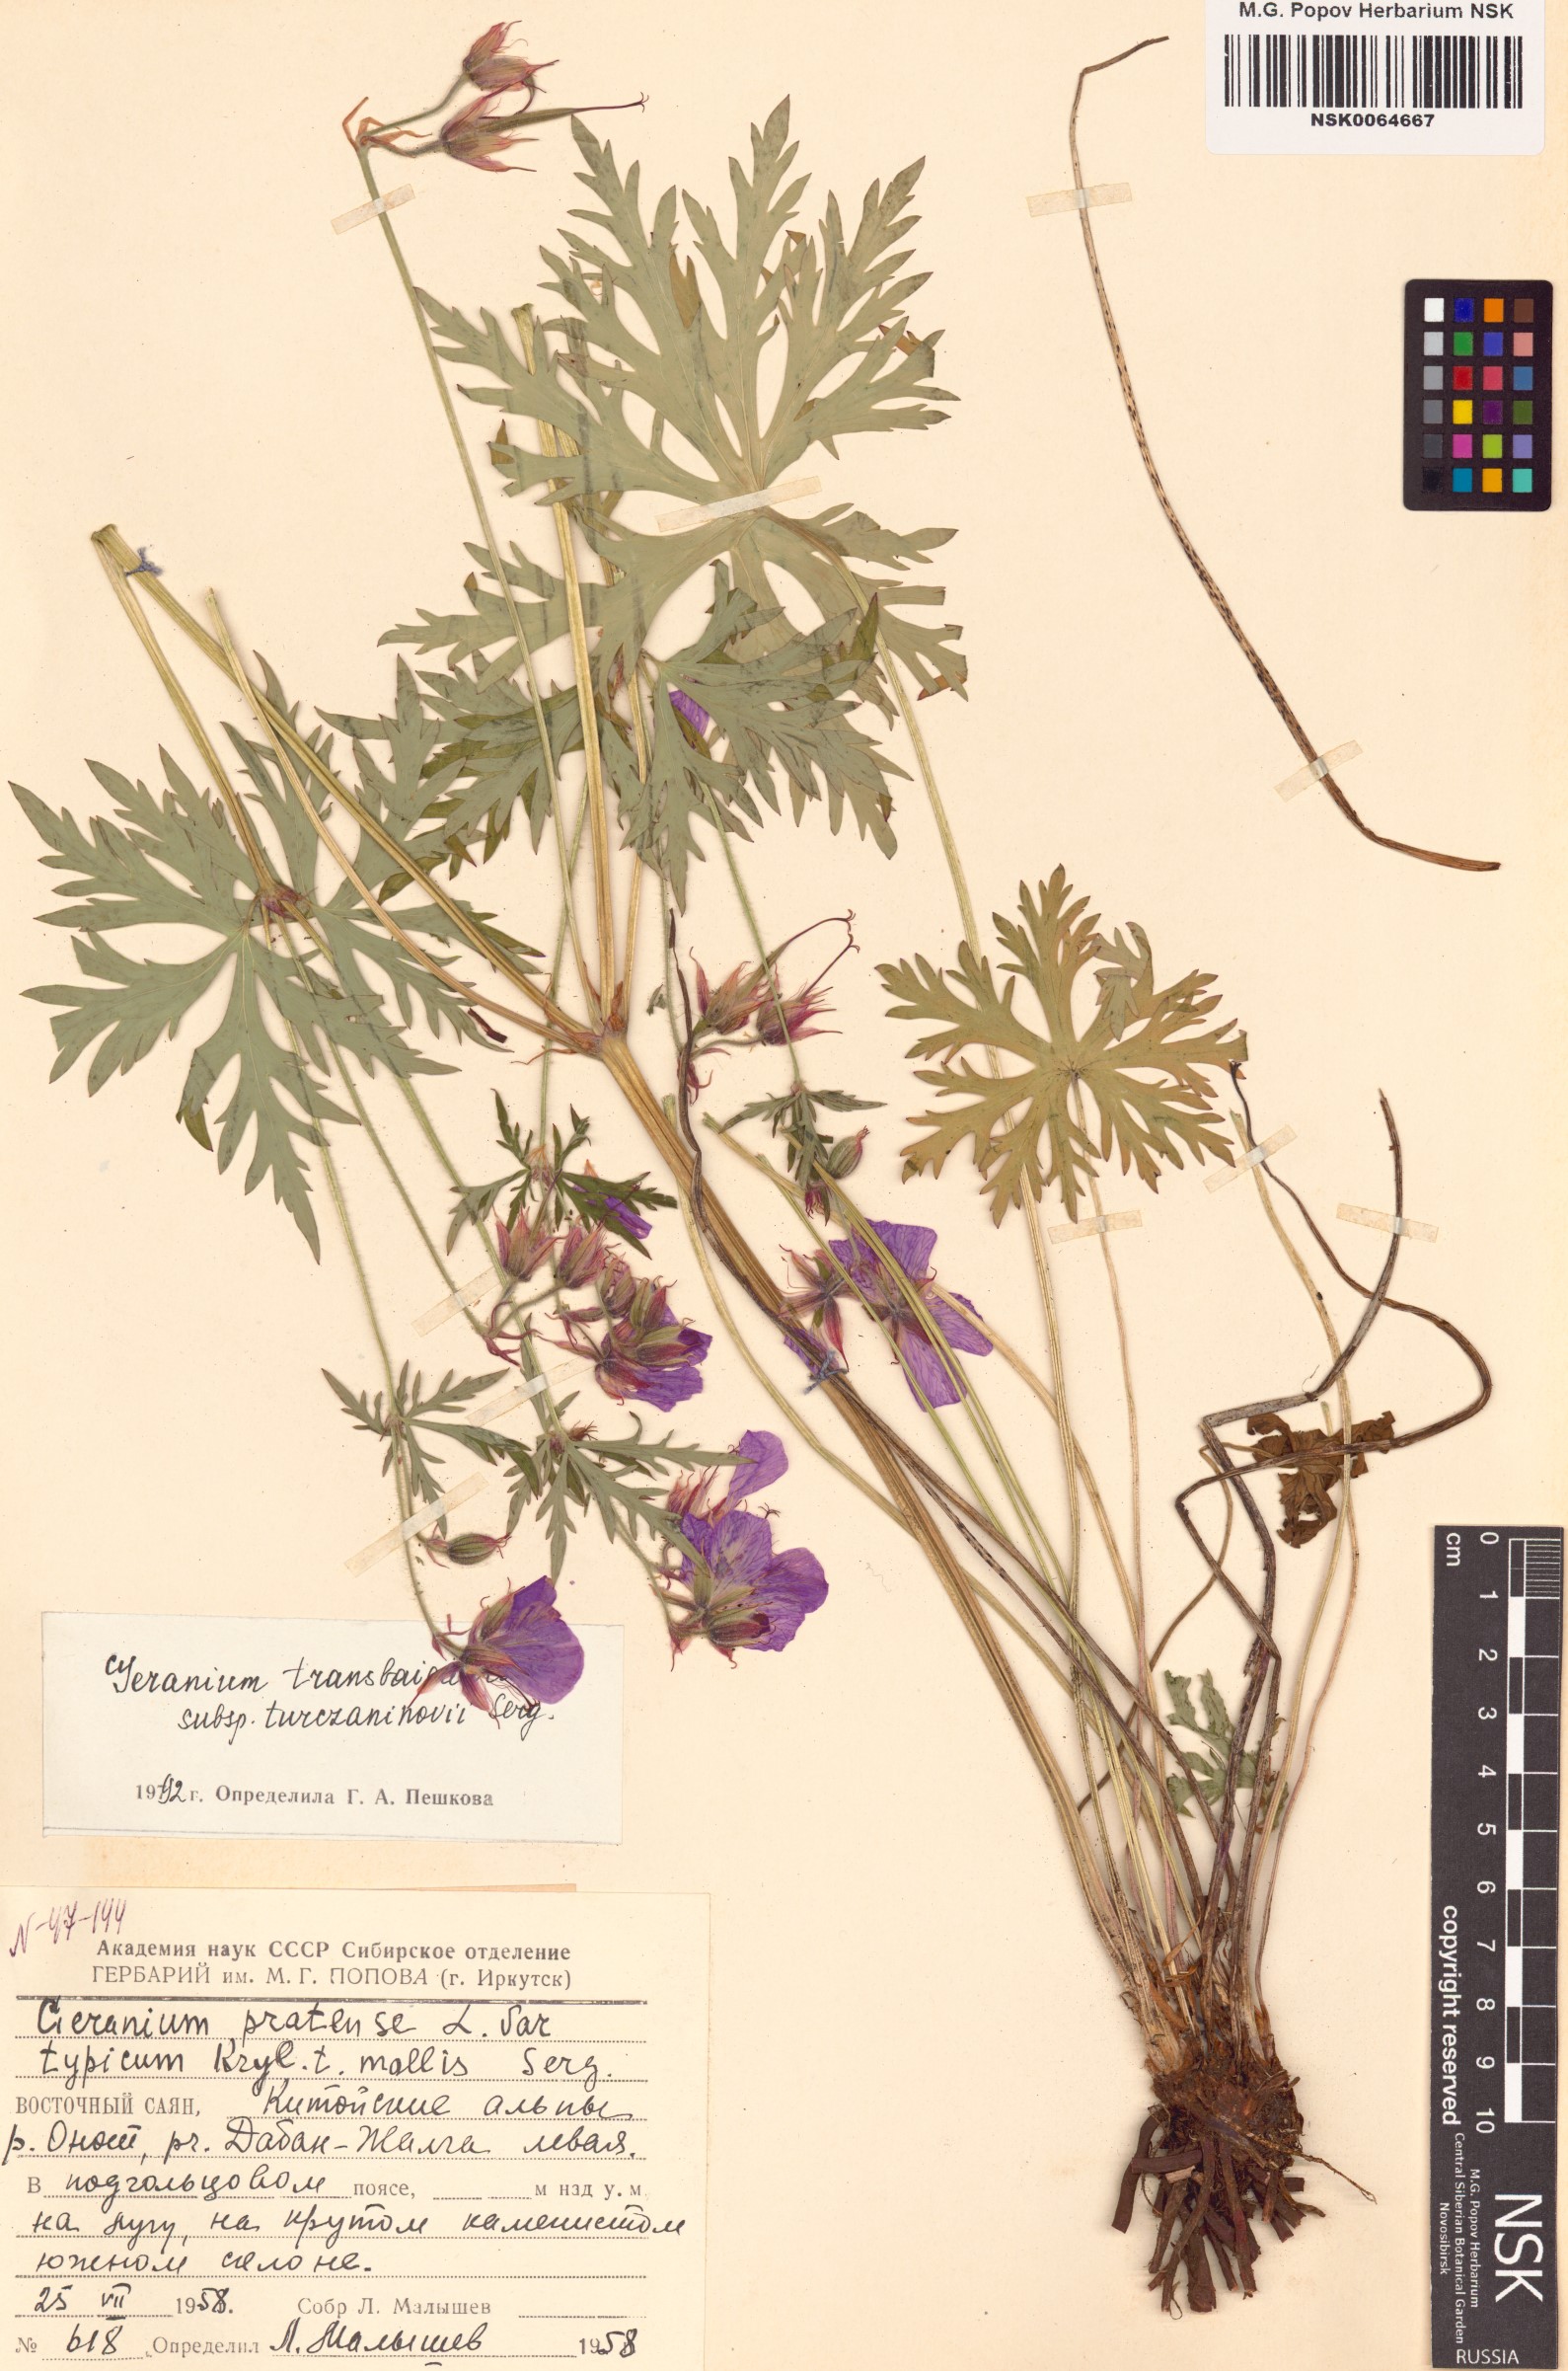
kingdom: Plantae
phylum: Tracheophyta
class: Magnoliopsida
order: Geraniales
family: Geraniaceae
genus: Geranium
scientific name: Geranium pratense
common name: Meadow crane's-bill
